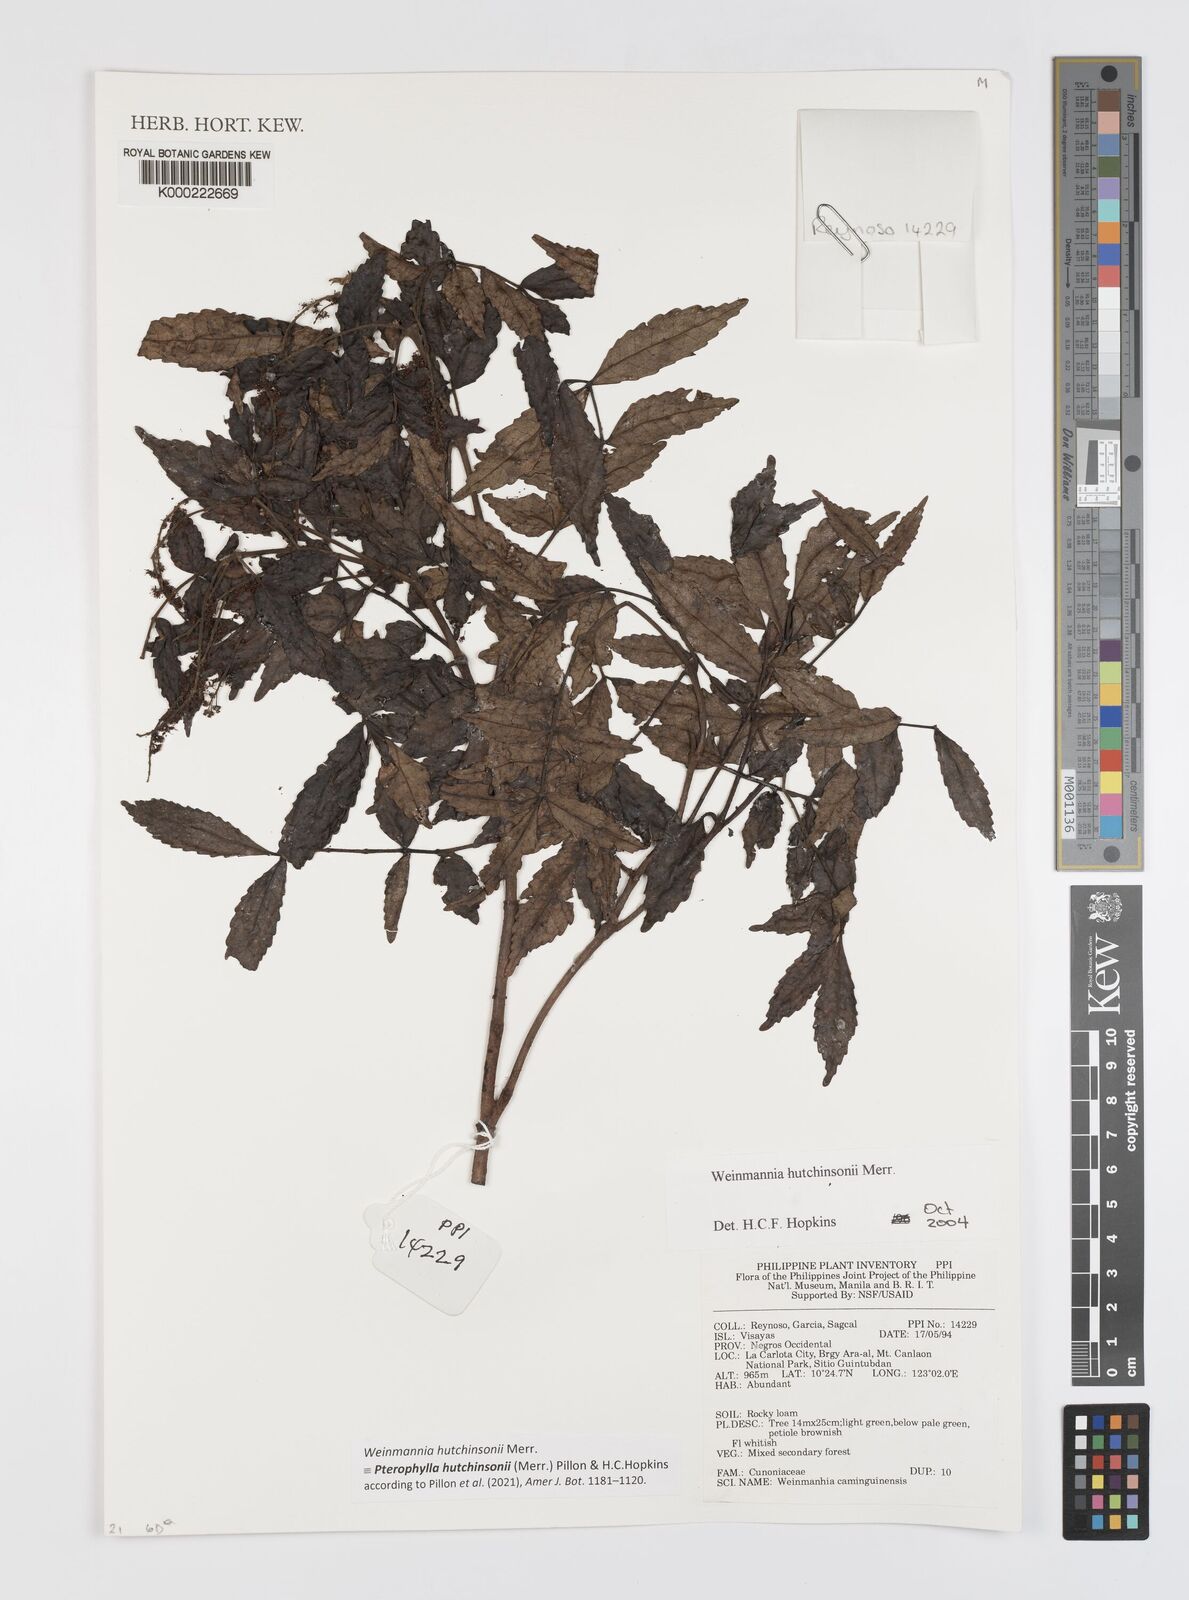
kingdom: Plantae
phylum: Tracheophyta
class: Magnoliopsida
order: Oxalidales
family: Cunoniaceae
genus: Pterophylla
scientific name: Pterophylla hutchinsonii
